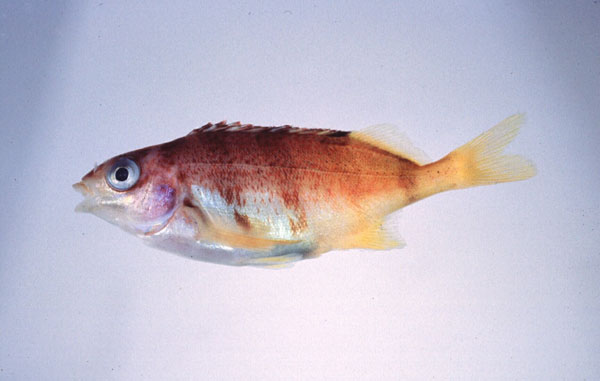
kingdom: Animalia
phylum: Chordata
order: Perciformes
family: Cheilodactylidae
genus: Cheilodactylus
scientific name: Cheilodactylus pixi
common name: Barred fingerfin
